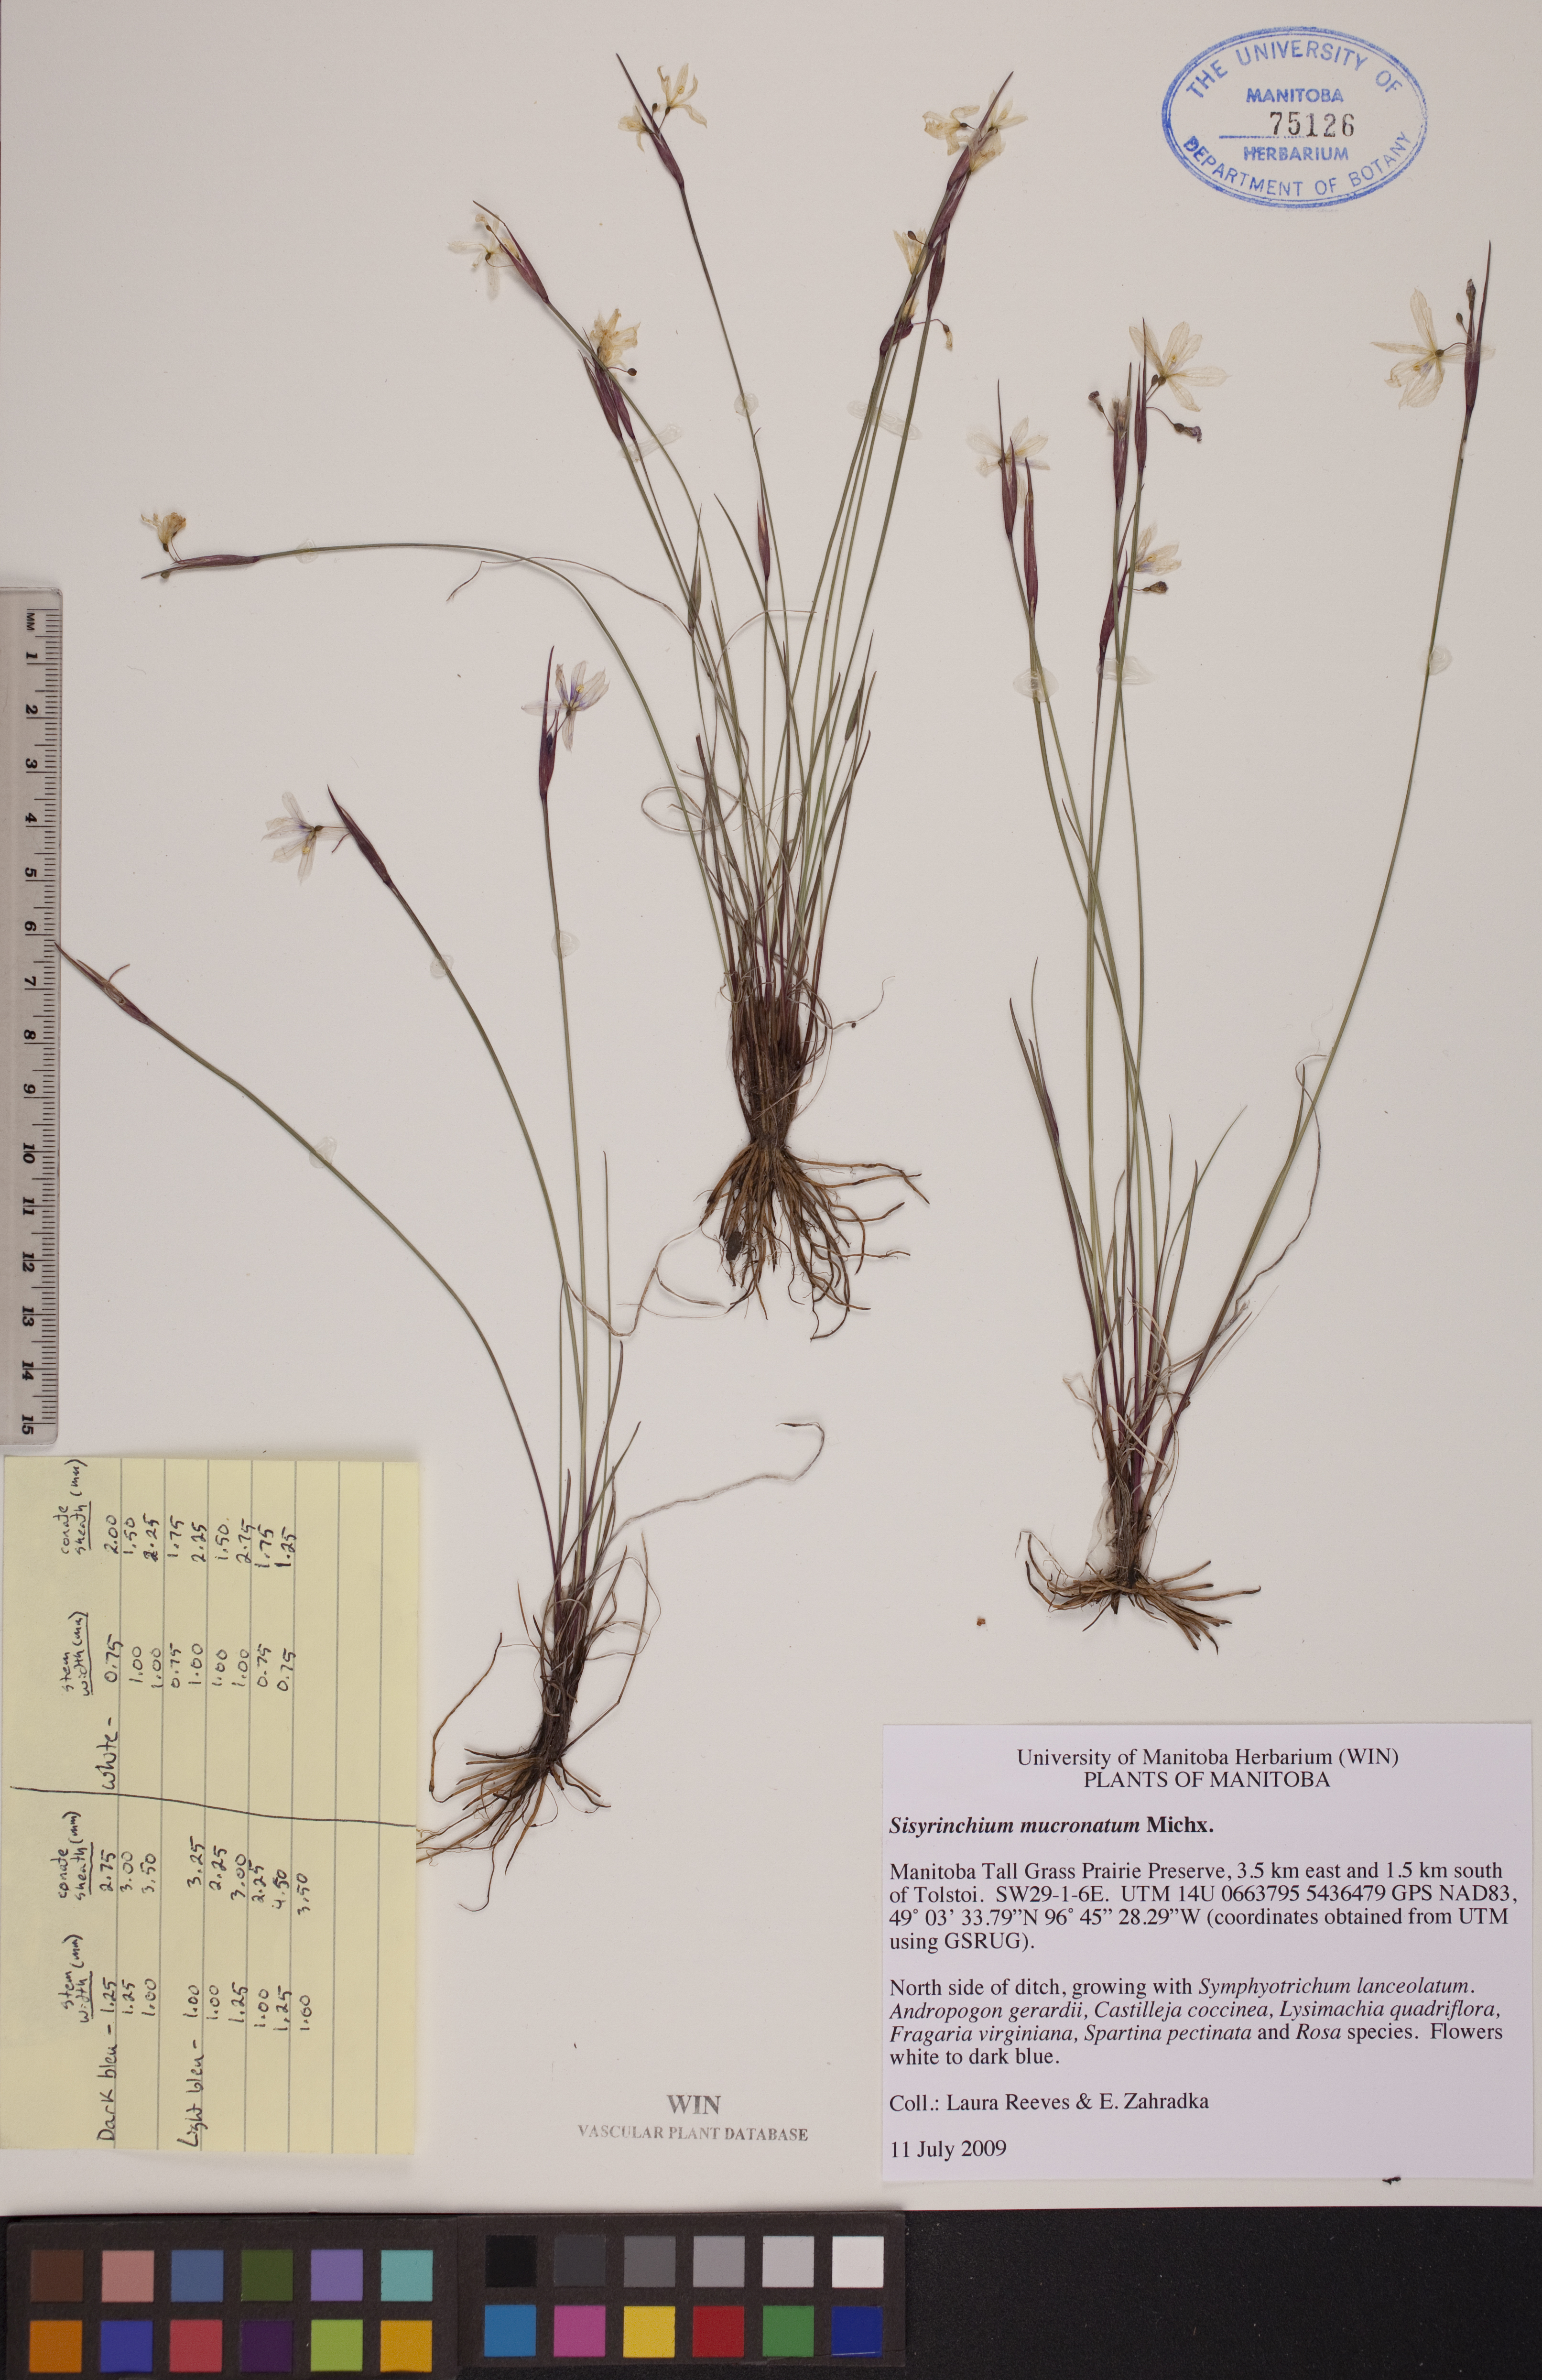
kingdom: Plantae
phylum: Tracheophyta
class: Liliopsida
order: Asparagales
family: Iridaceae
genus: Sisyrinchium
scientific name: Sisyrinchium mucronatum
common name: Eastern blue-eyed-grass
